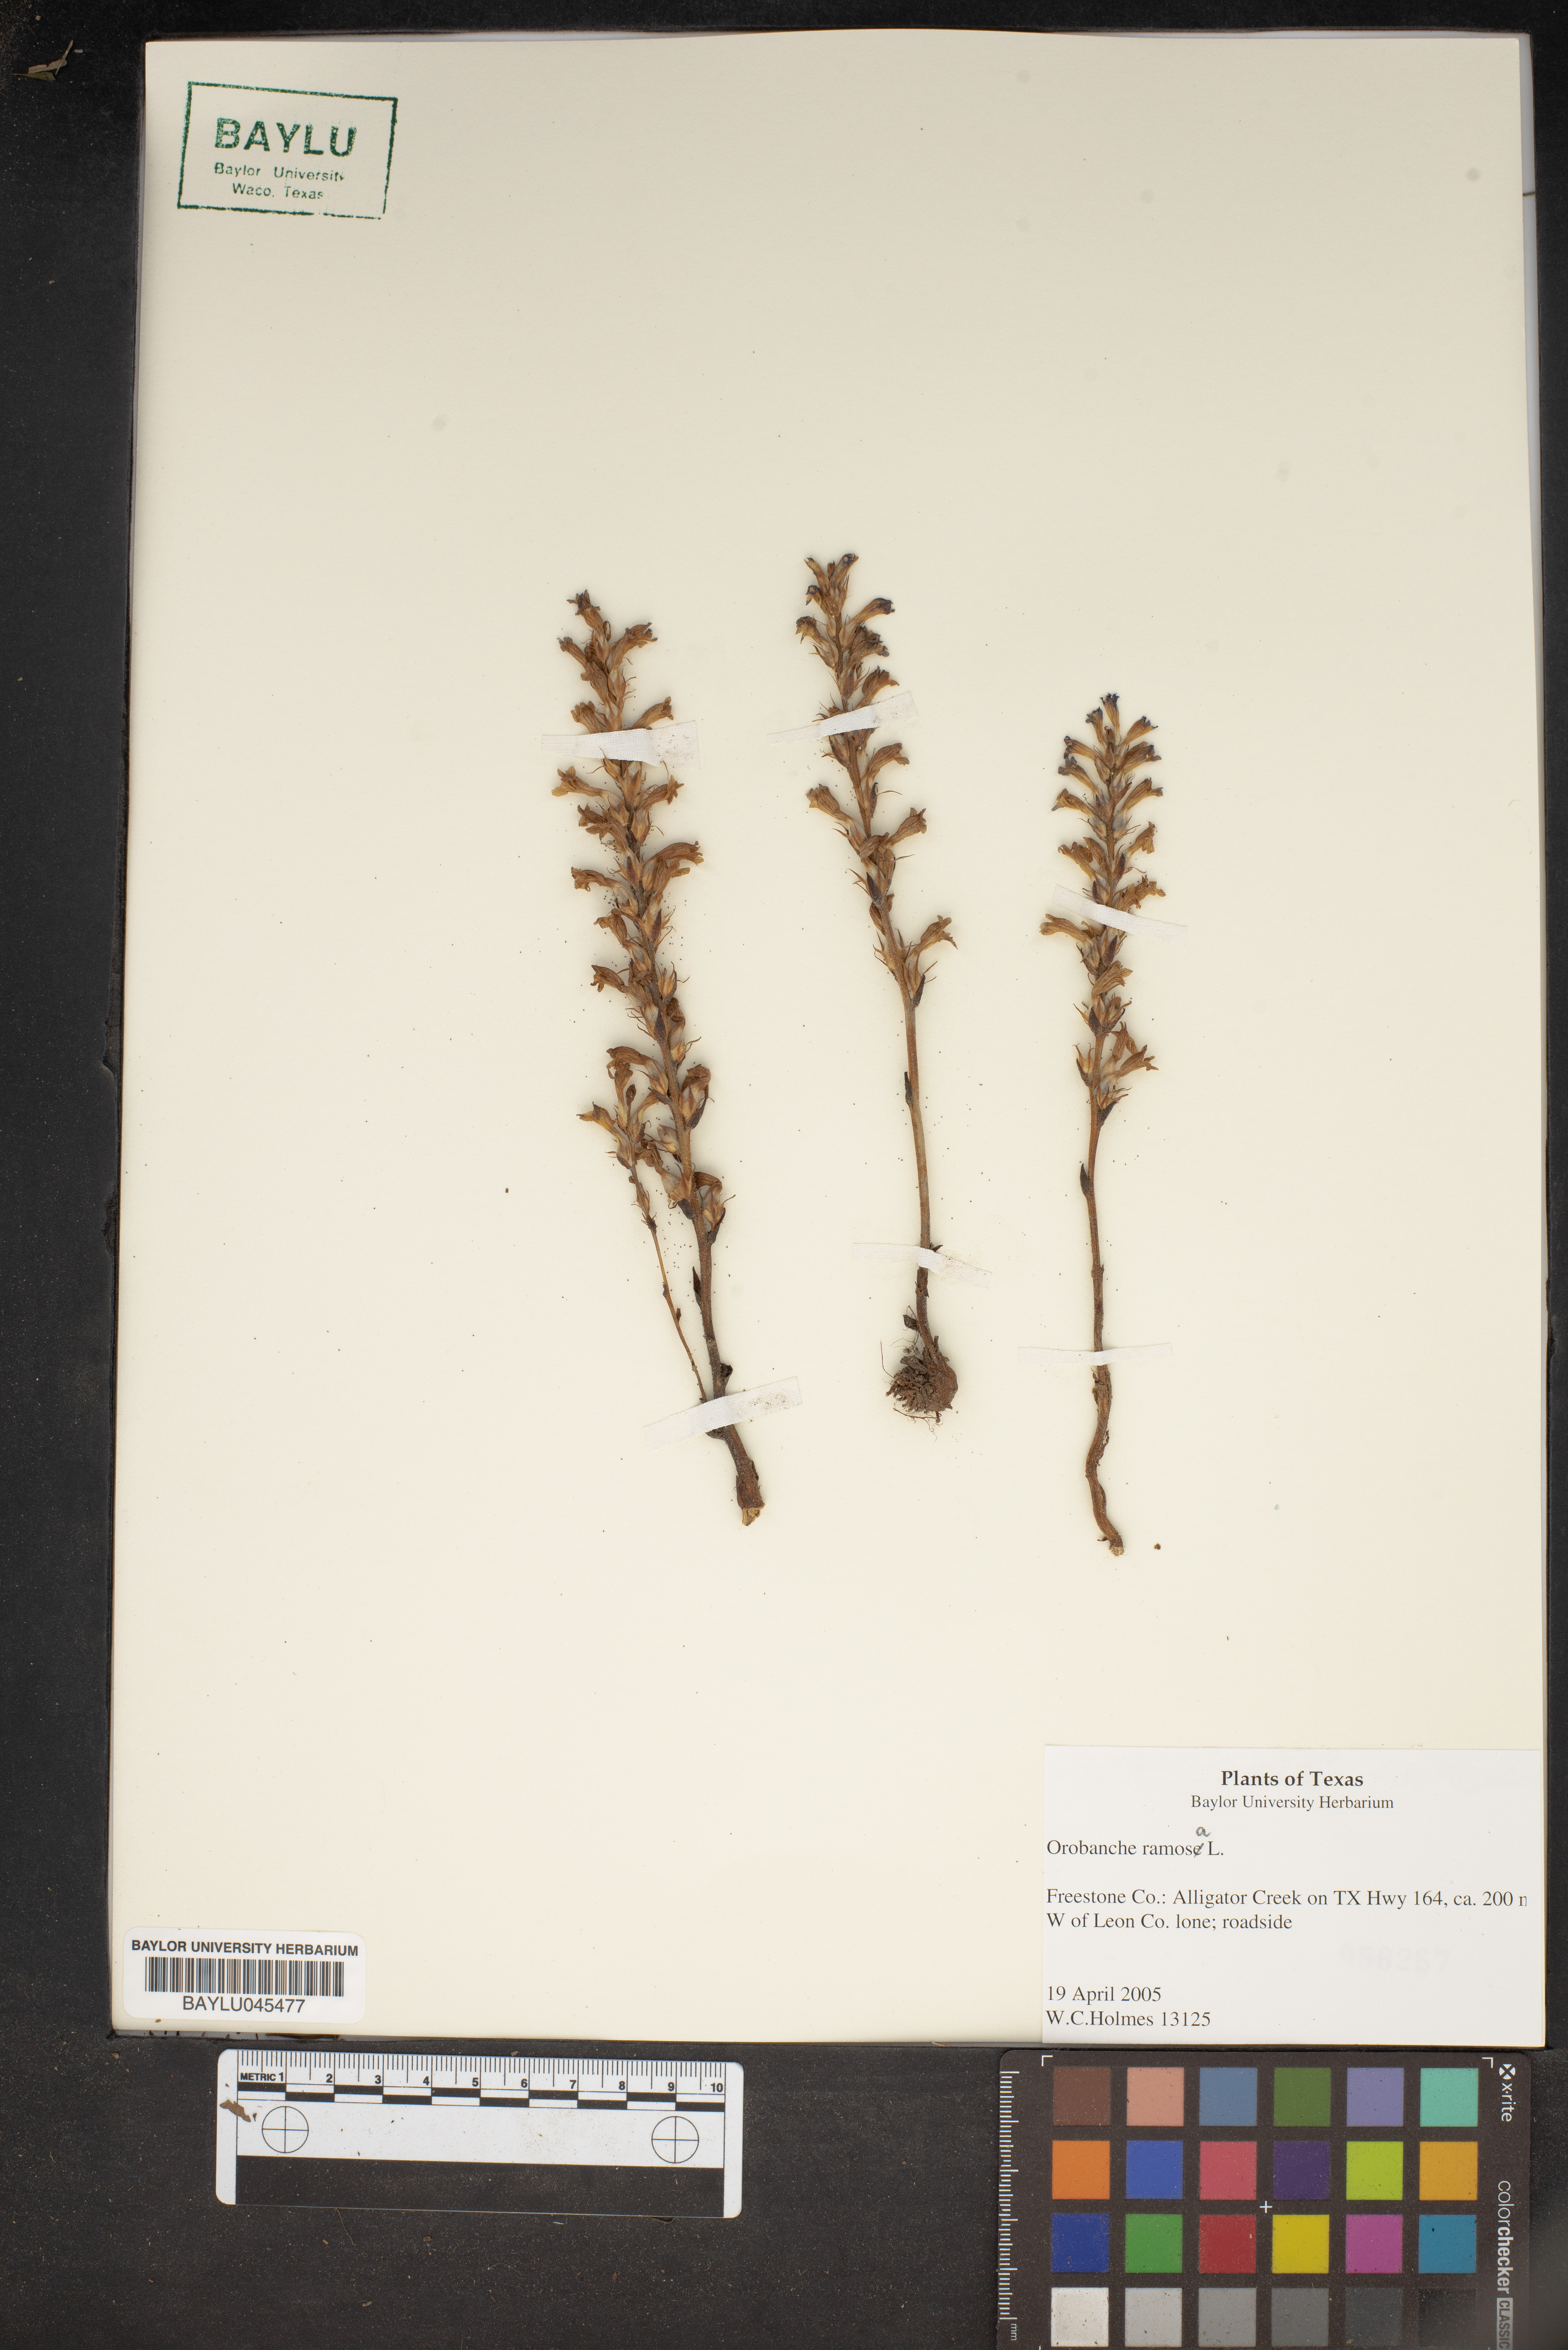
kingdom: Plantae
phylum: Tracheophyta
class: Magnoliopsida
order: Lamiales
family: Orobanchaceae
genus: Phelipanche
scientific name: Phelipanche ramosa
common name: Branched broomrape
